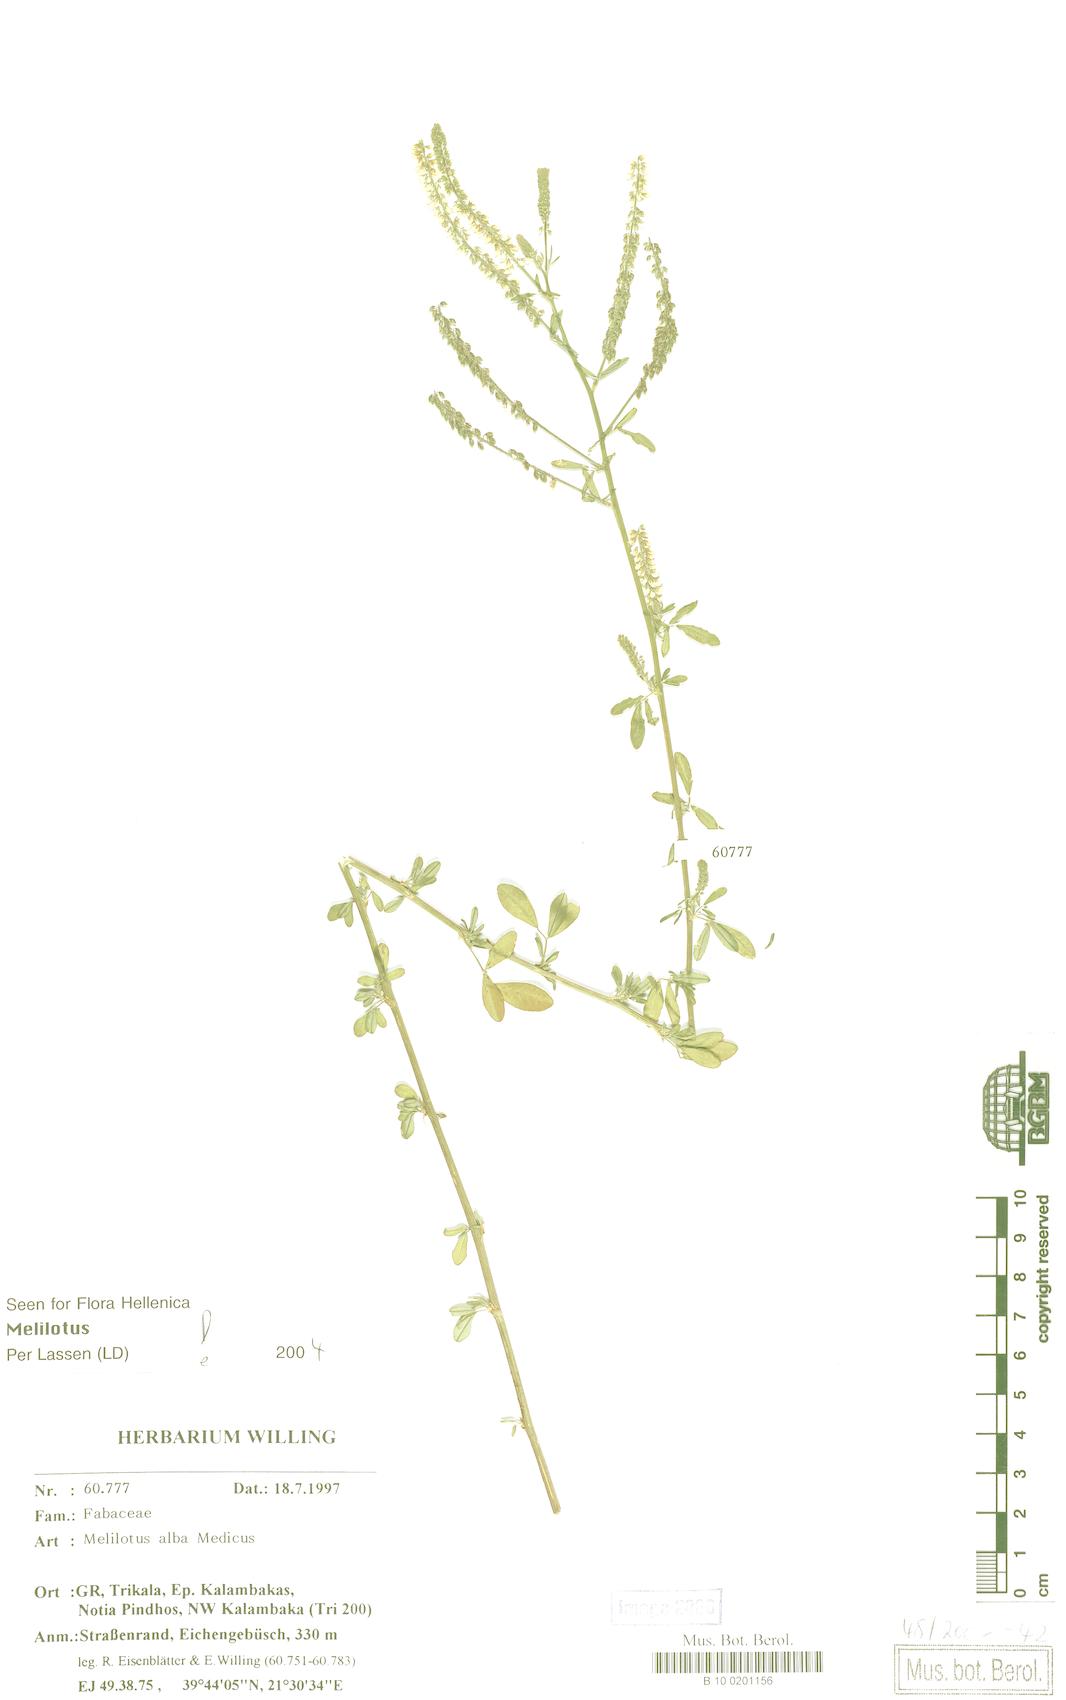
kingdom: Plantae
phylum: Tracheophyta
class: Magnoliopsida
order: Fabales
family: Fabaceae
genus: Melilotus
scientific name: Melilotus albus
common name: White melilot
